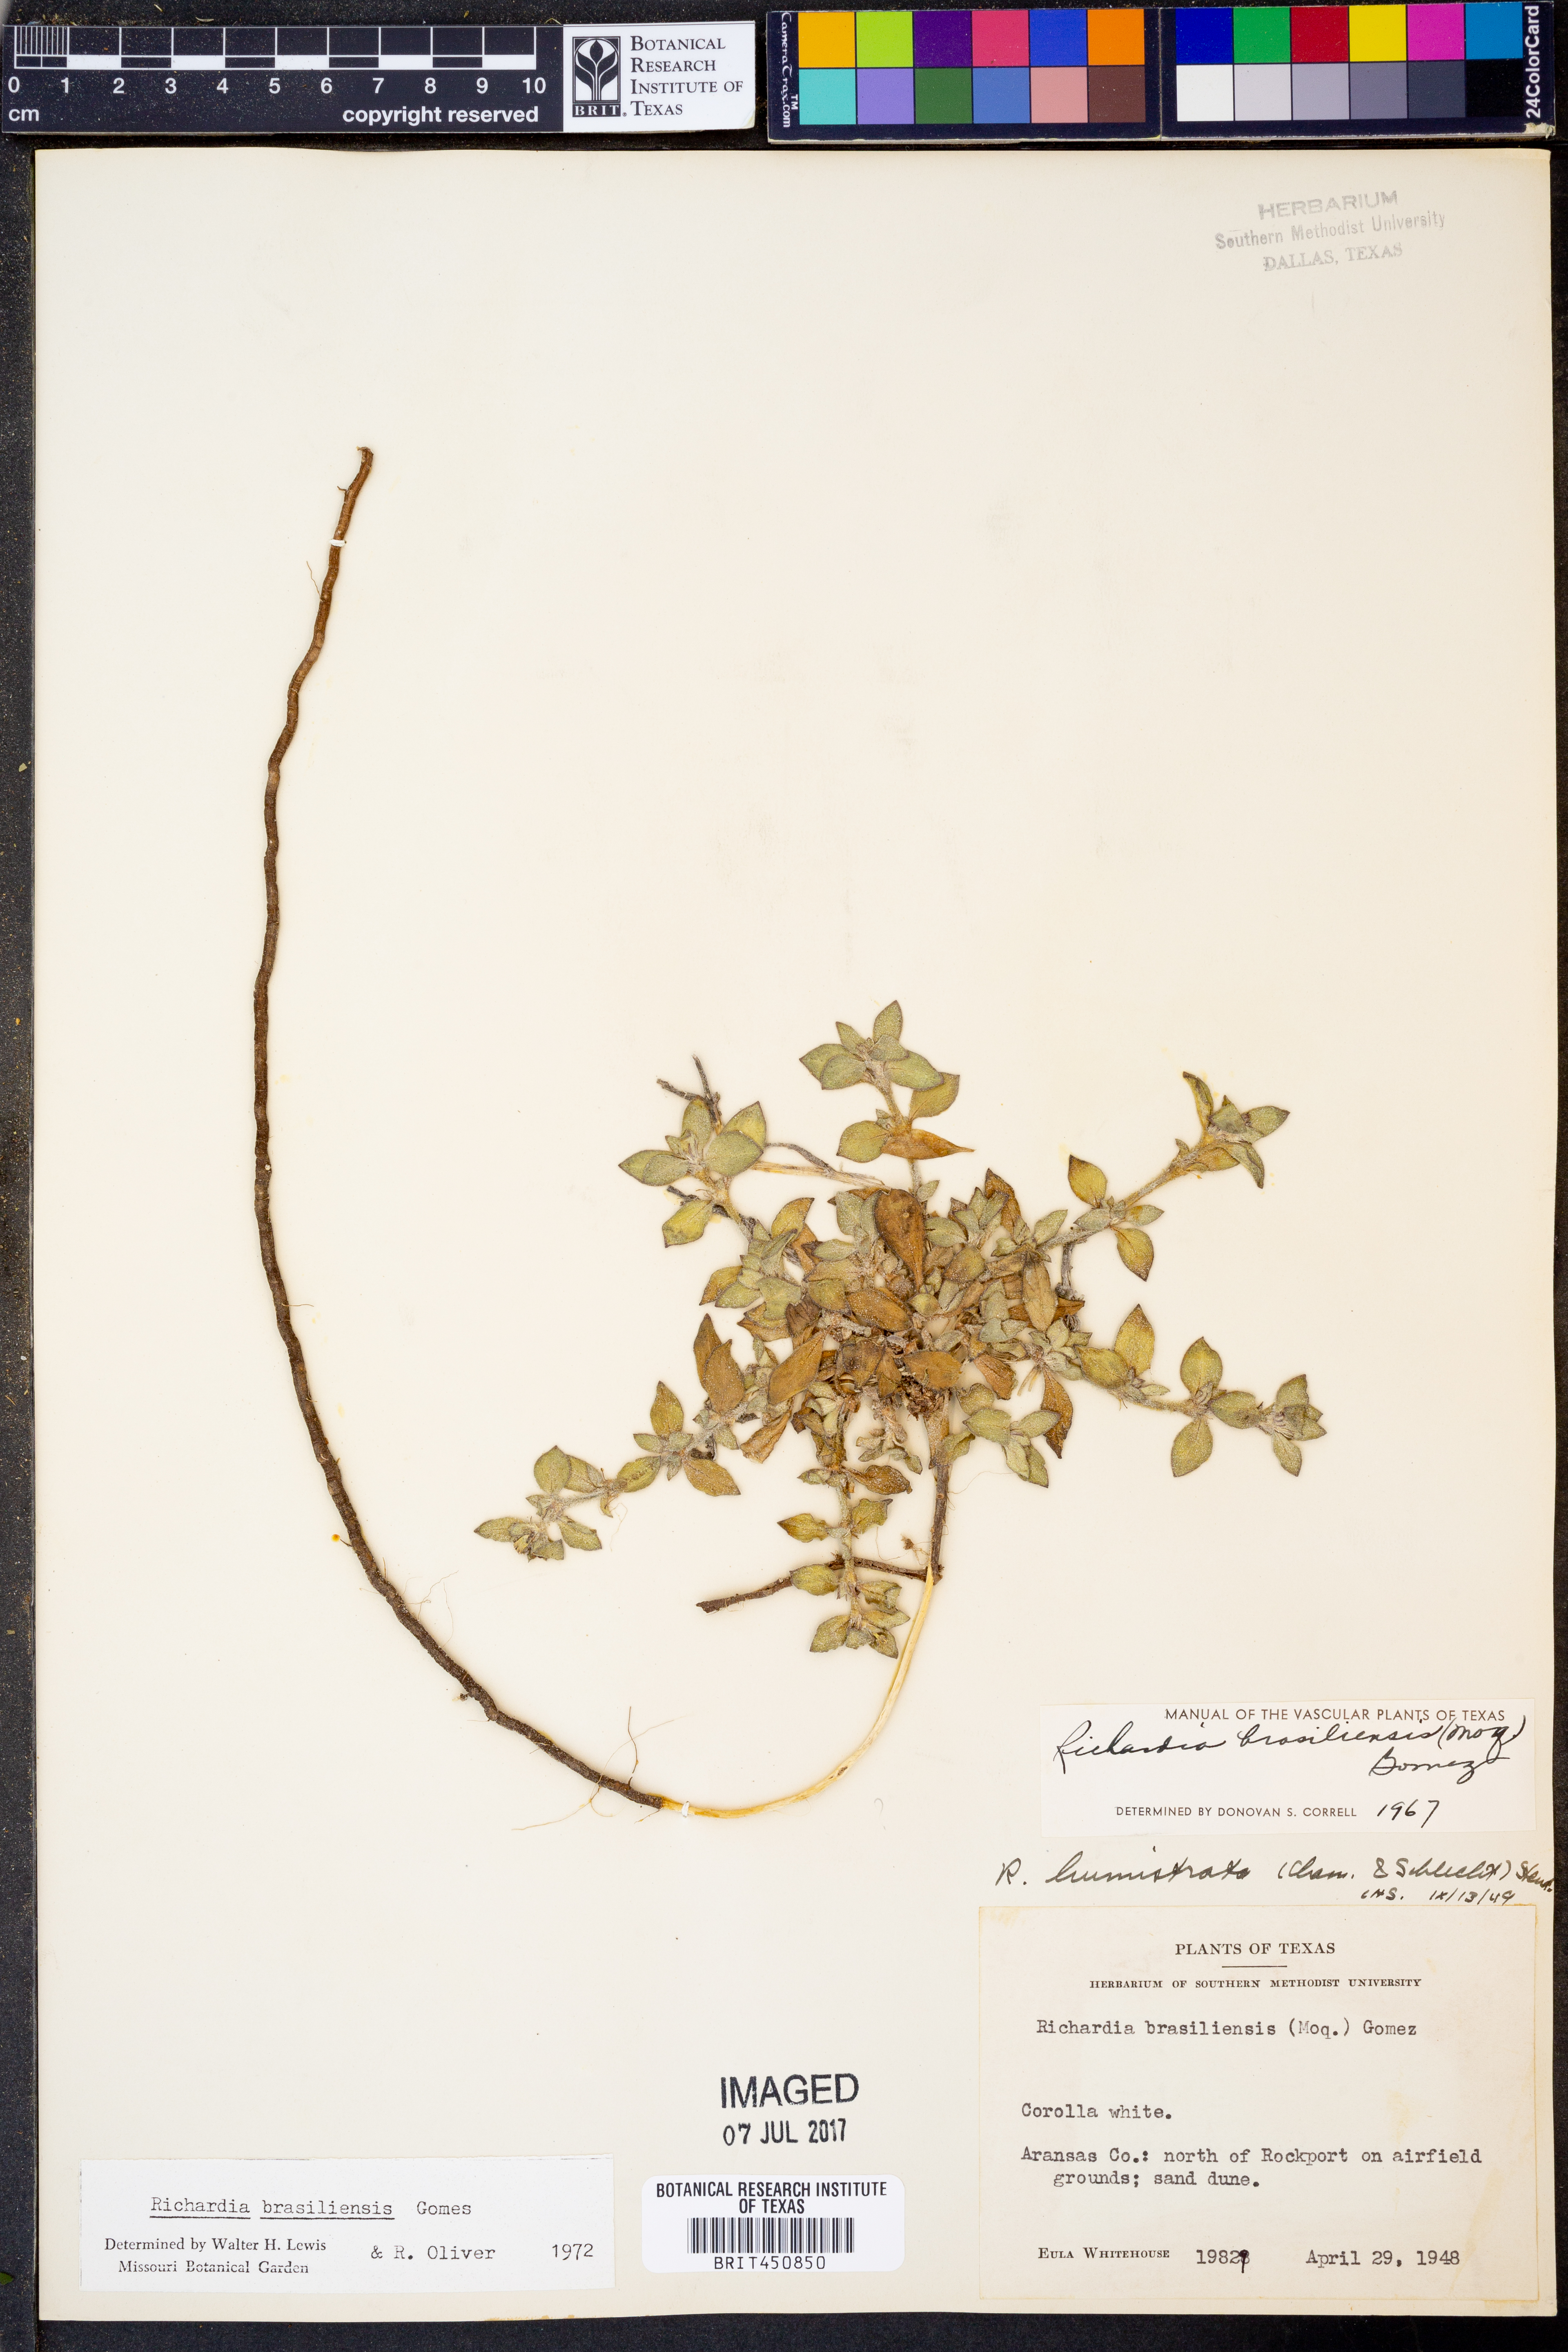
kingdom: Plantae
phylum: Tracheophyta
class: Magnoliopsida
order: Gentianales
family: Rubiaceae
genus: Richardia
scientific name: Richardia brasiliensis
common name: Tropical mexican clover
